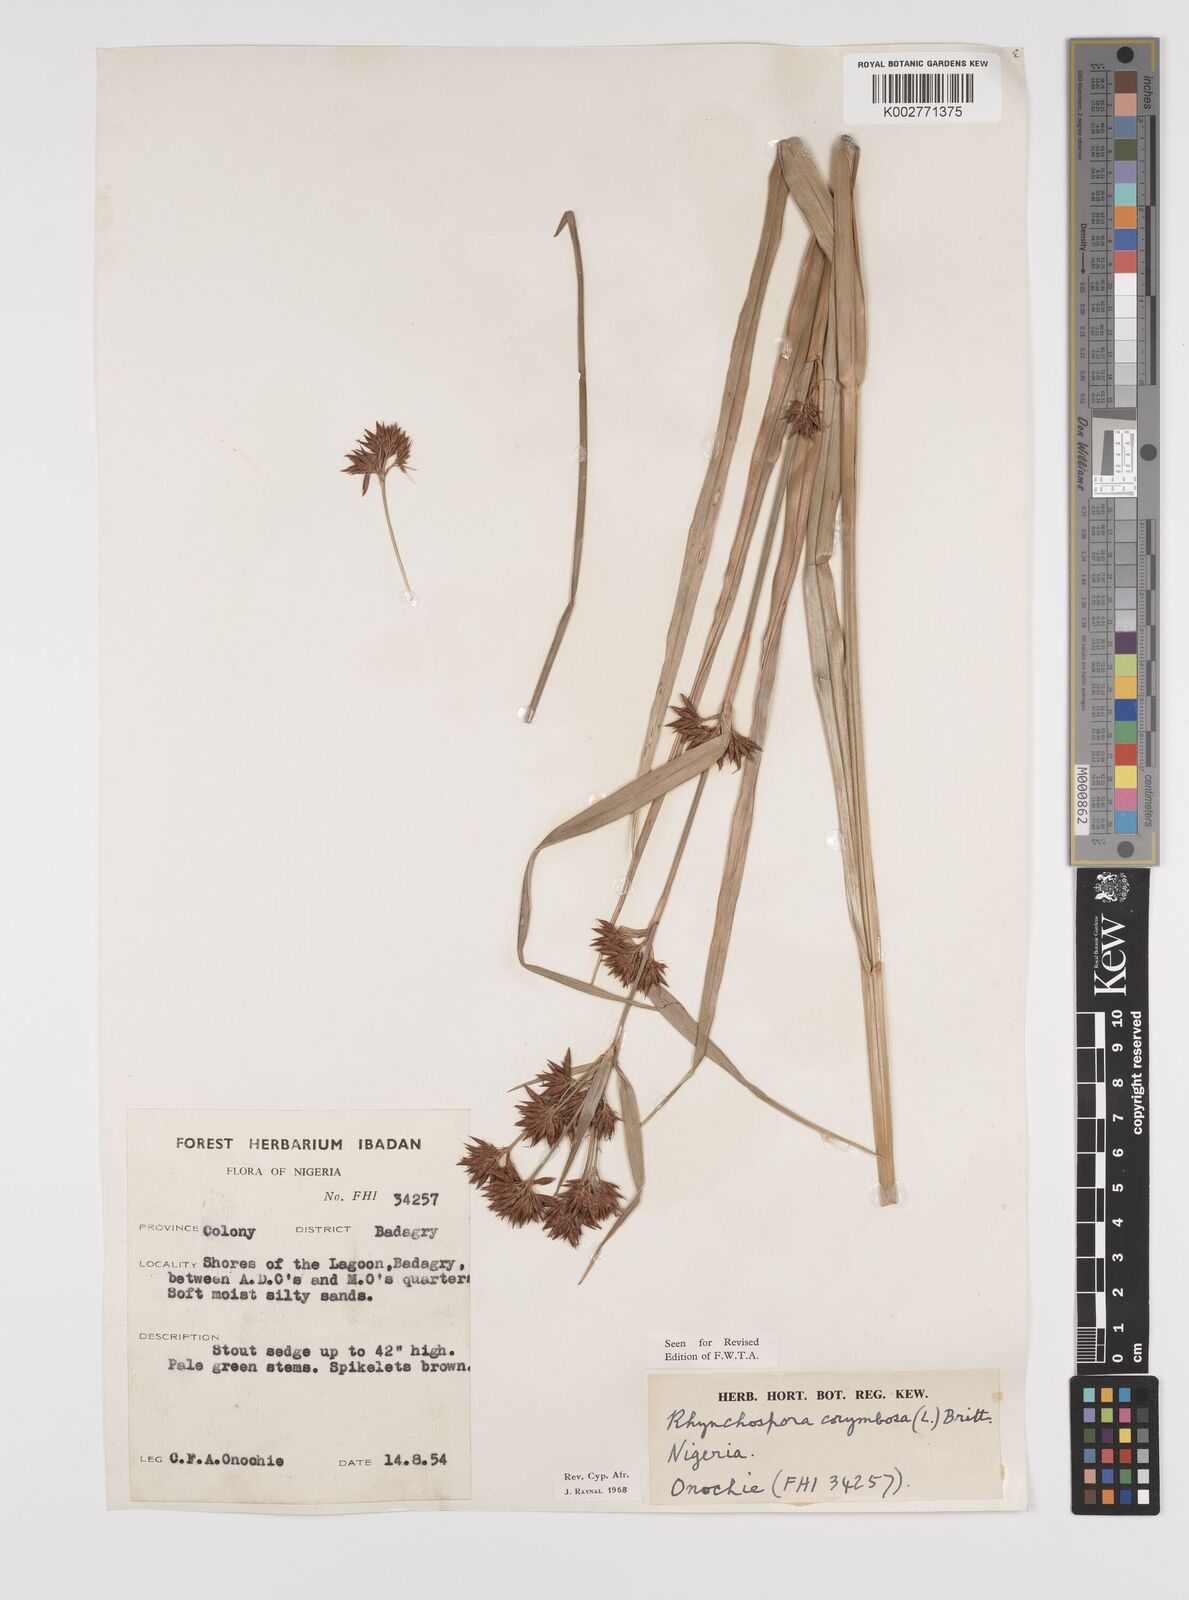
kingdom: Plantae
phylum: Tracheophyta
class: Liliopsida
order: Poales
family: Cyperaceae
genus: Rhynchospora
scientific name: Rhynchospora corymbosa
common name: Golden beak sedge
